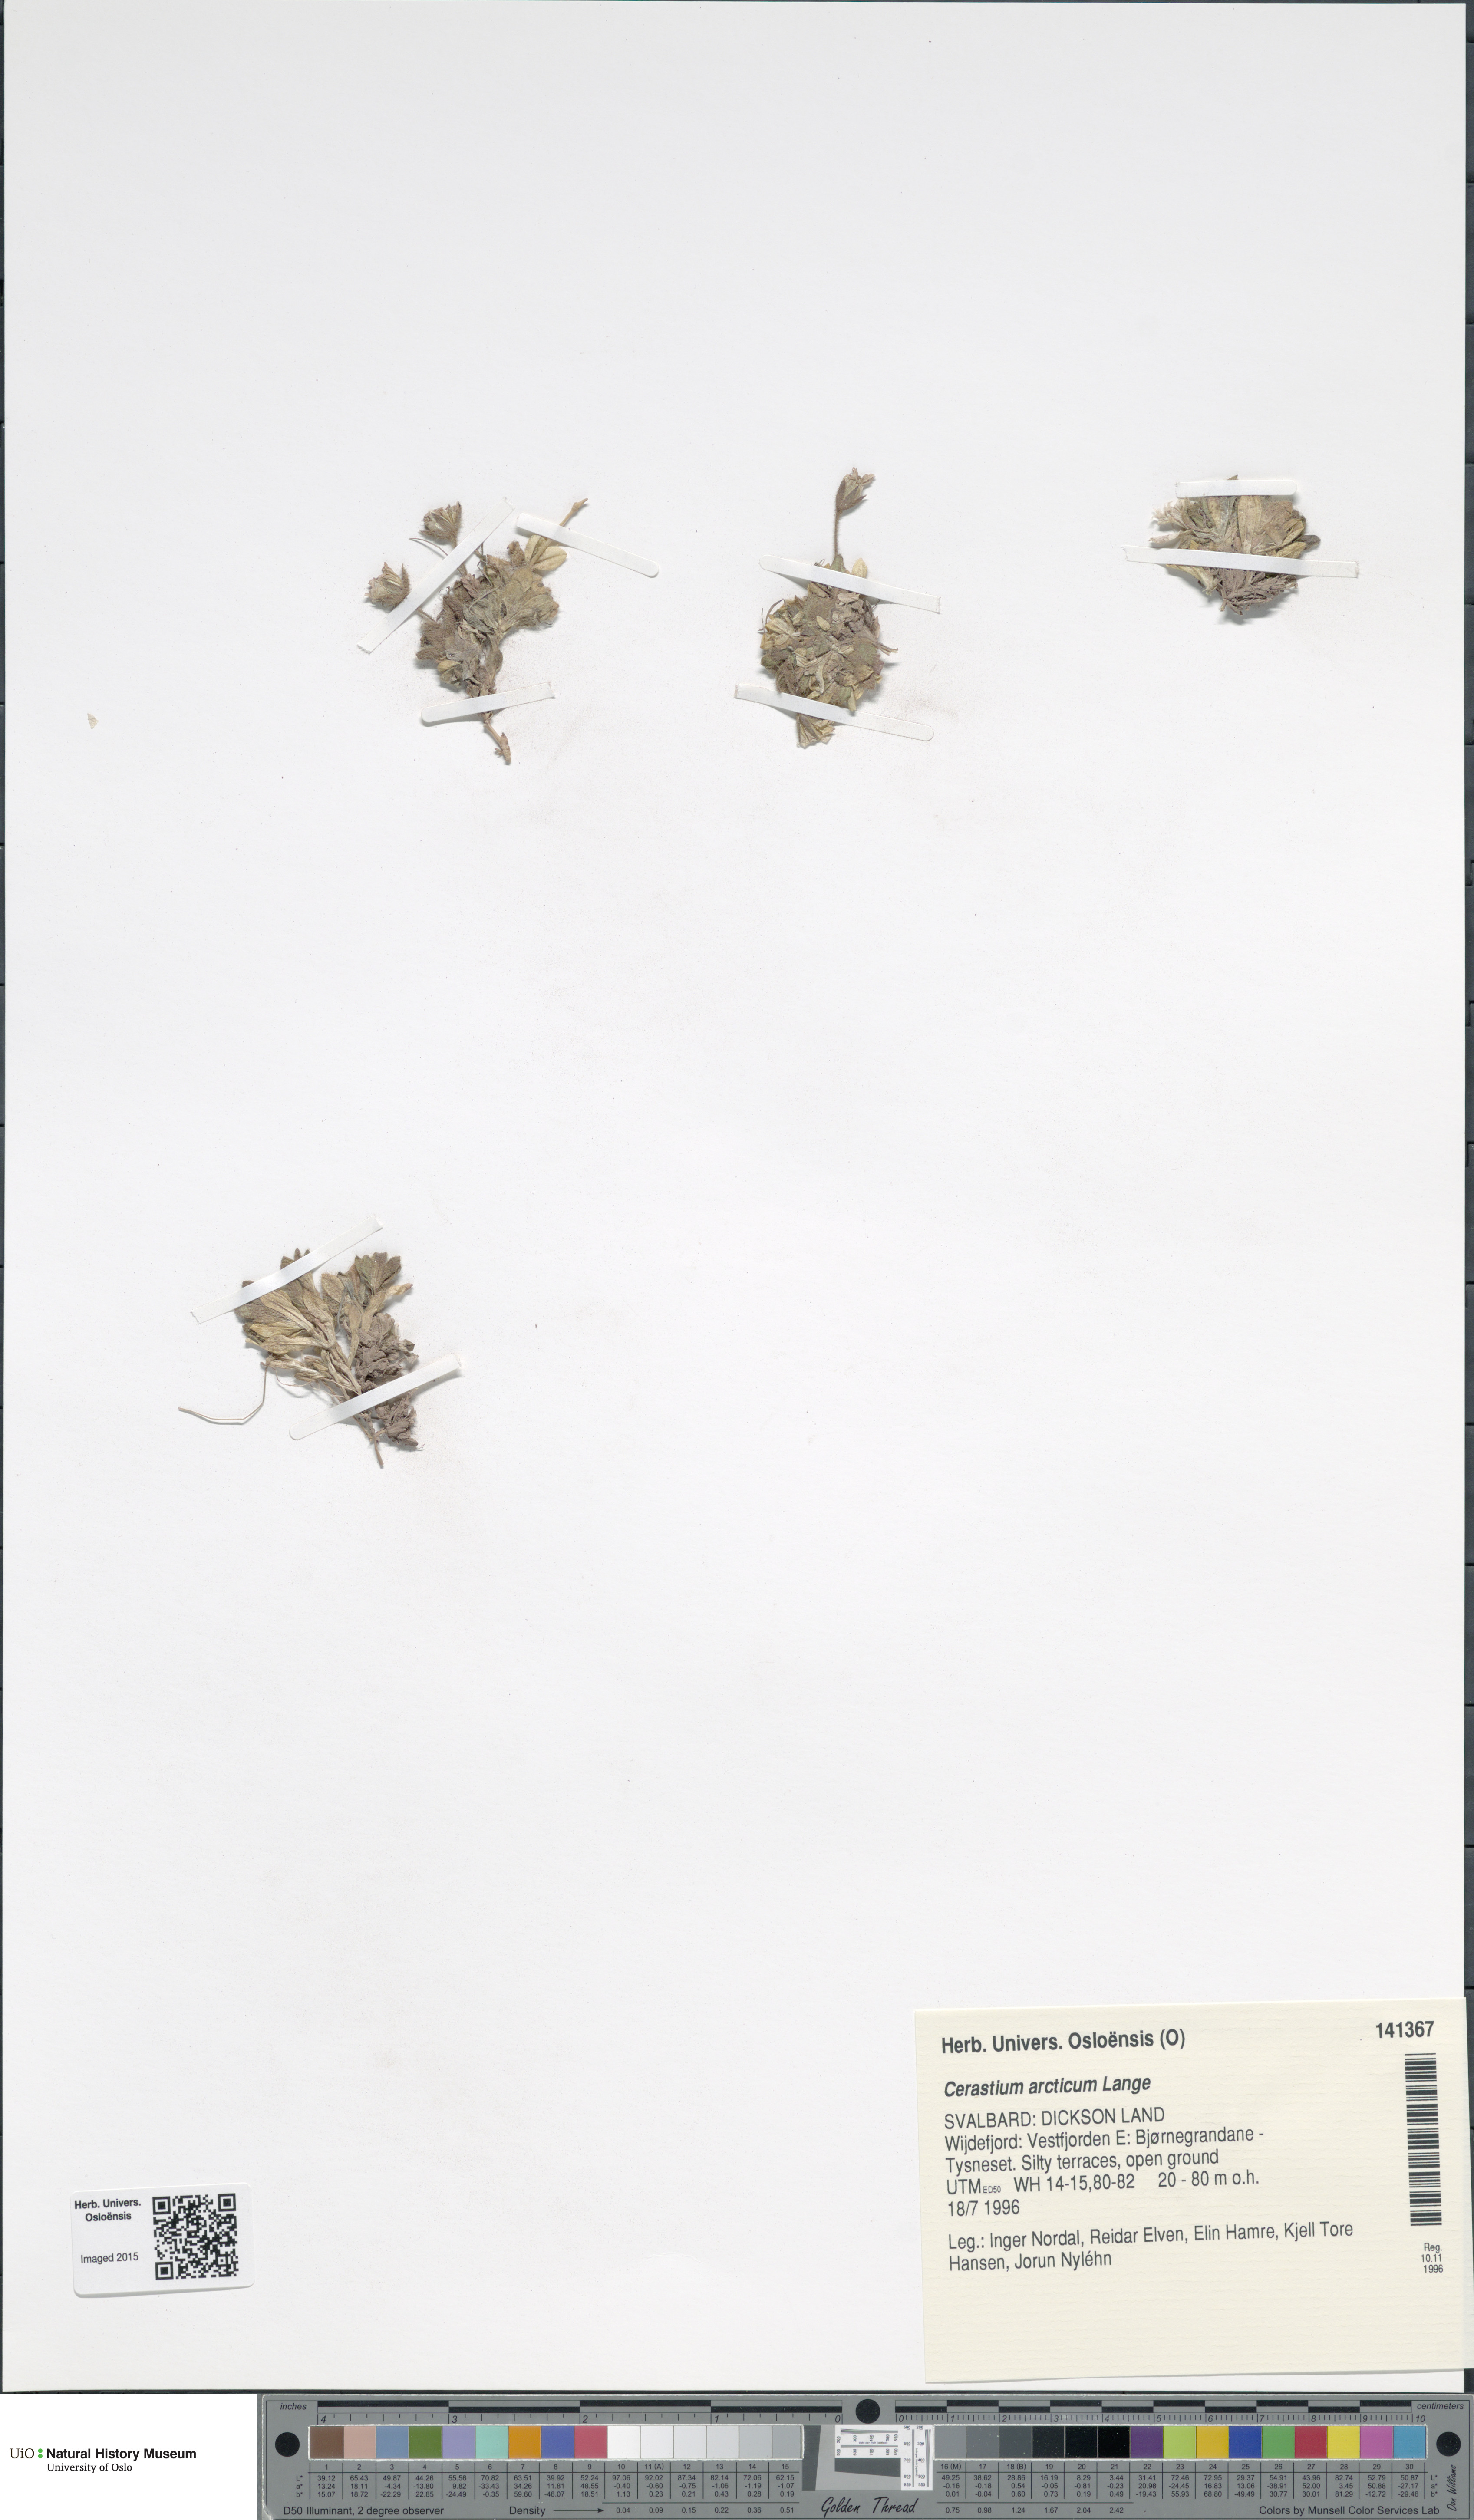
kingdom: Plantae
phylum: Tracheophyta
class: Magnoliopsida
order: Caryophyllales
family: Caryophyllaceae
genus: Cerastium
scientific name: Cerastium arcticum
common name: Arctic mouse-ear
